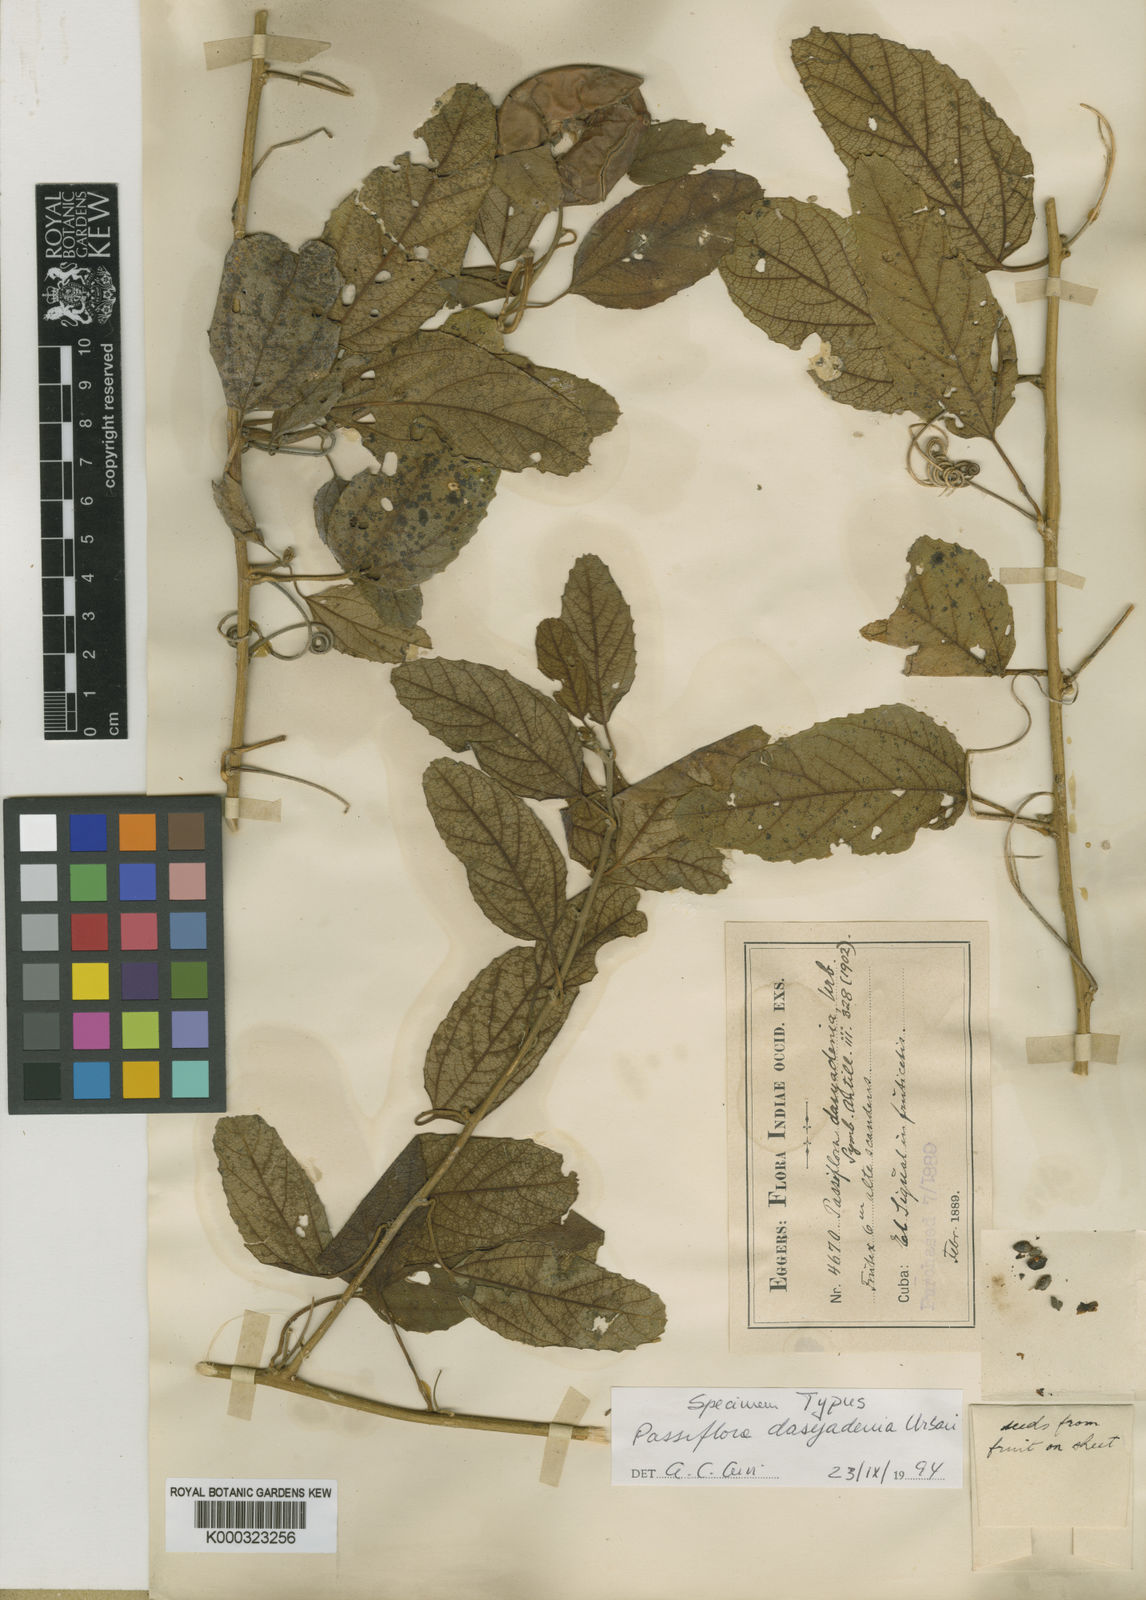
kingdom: Plantae
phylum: Tracheophyta
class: Magnoliopsida
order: Malpighiales
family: Passifloraceae
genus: Passiflora
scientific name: Passiflora dasyadenia
